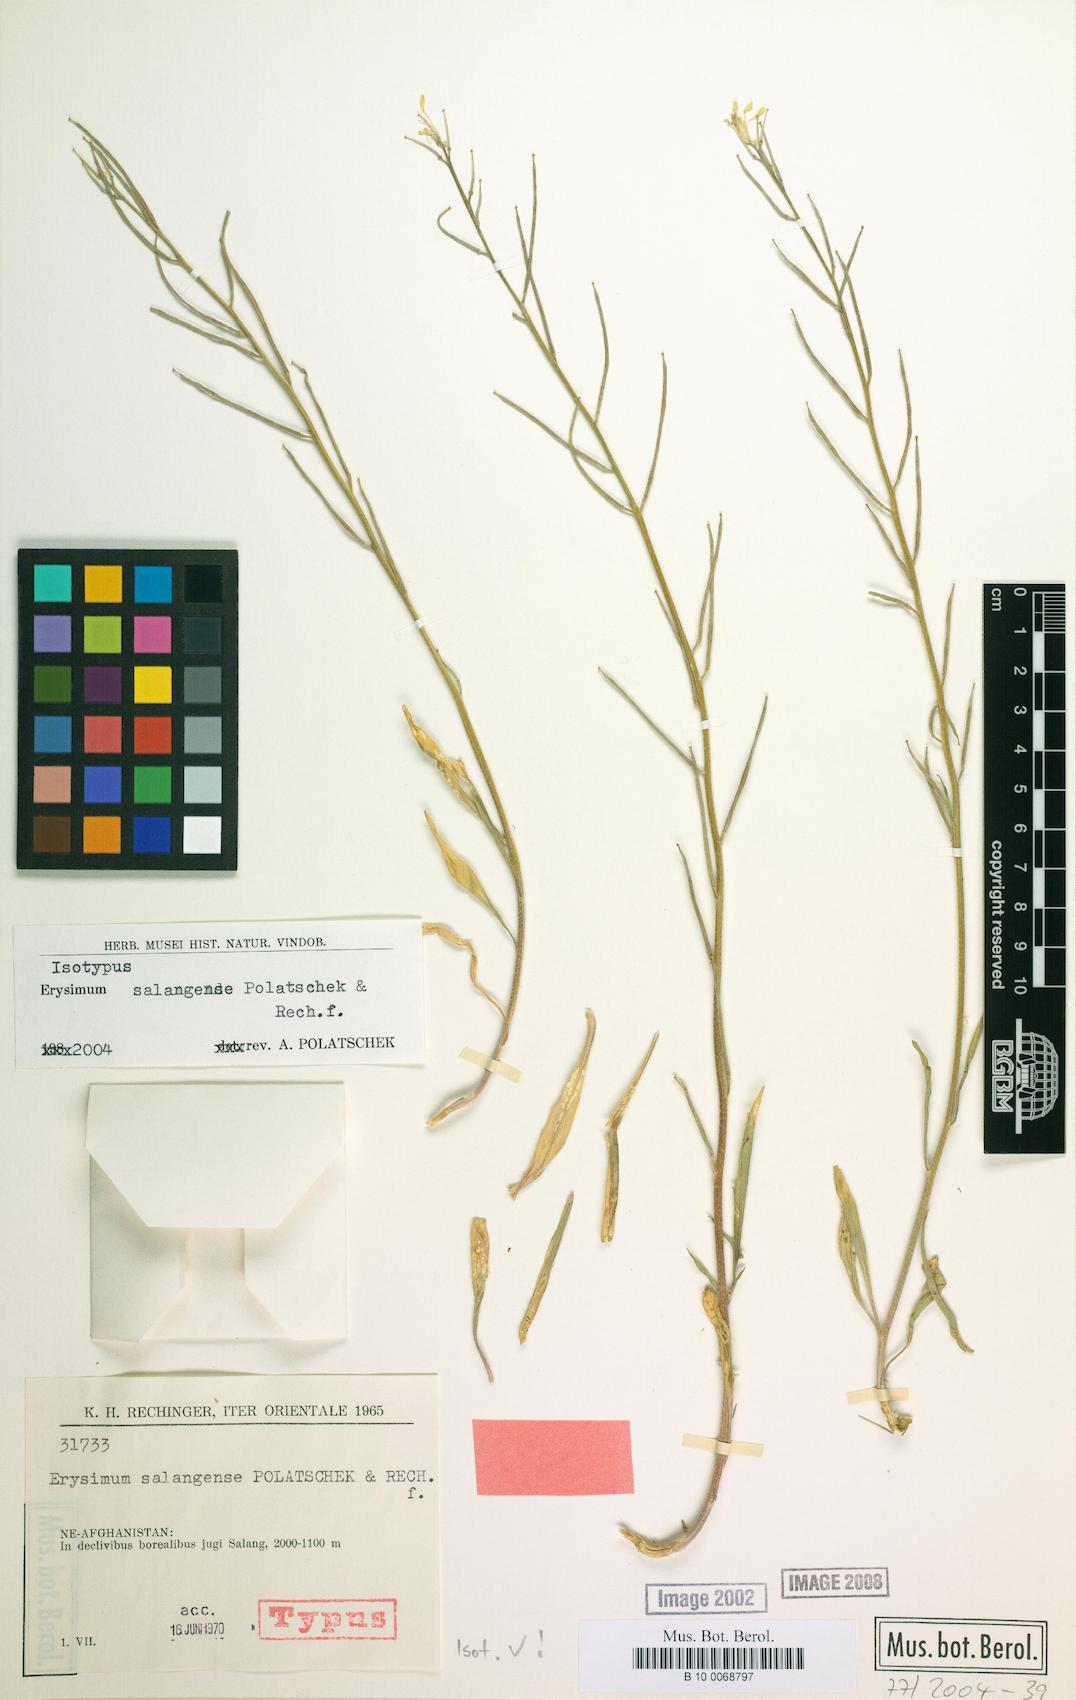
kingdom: Plantae
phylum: Tracheophyta
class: Magnoliopsida
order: Brassicales
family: Brassicaceae
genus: Erysimum
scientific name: Erysimum salangense
